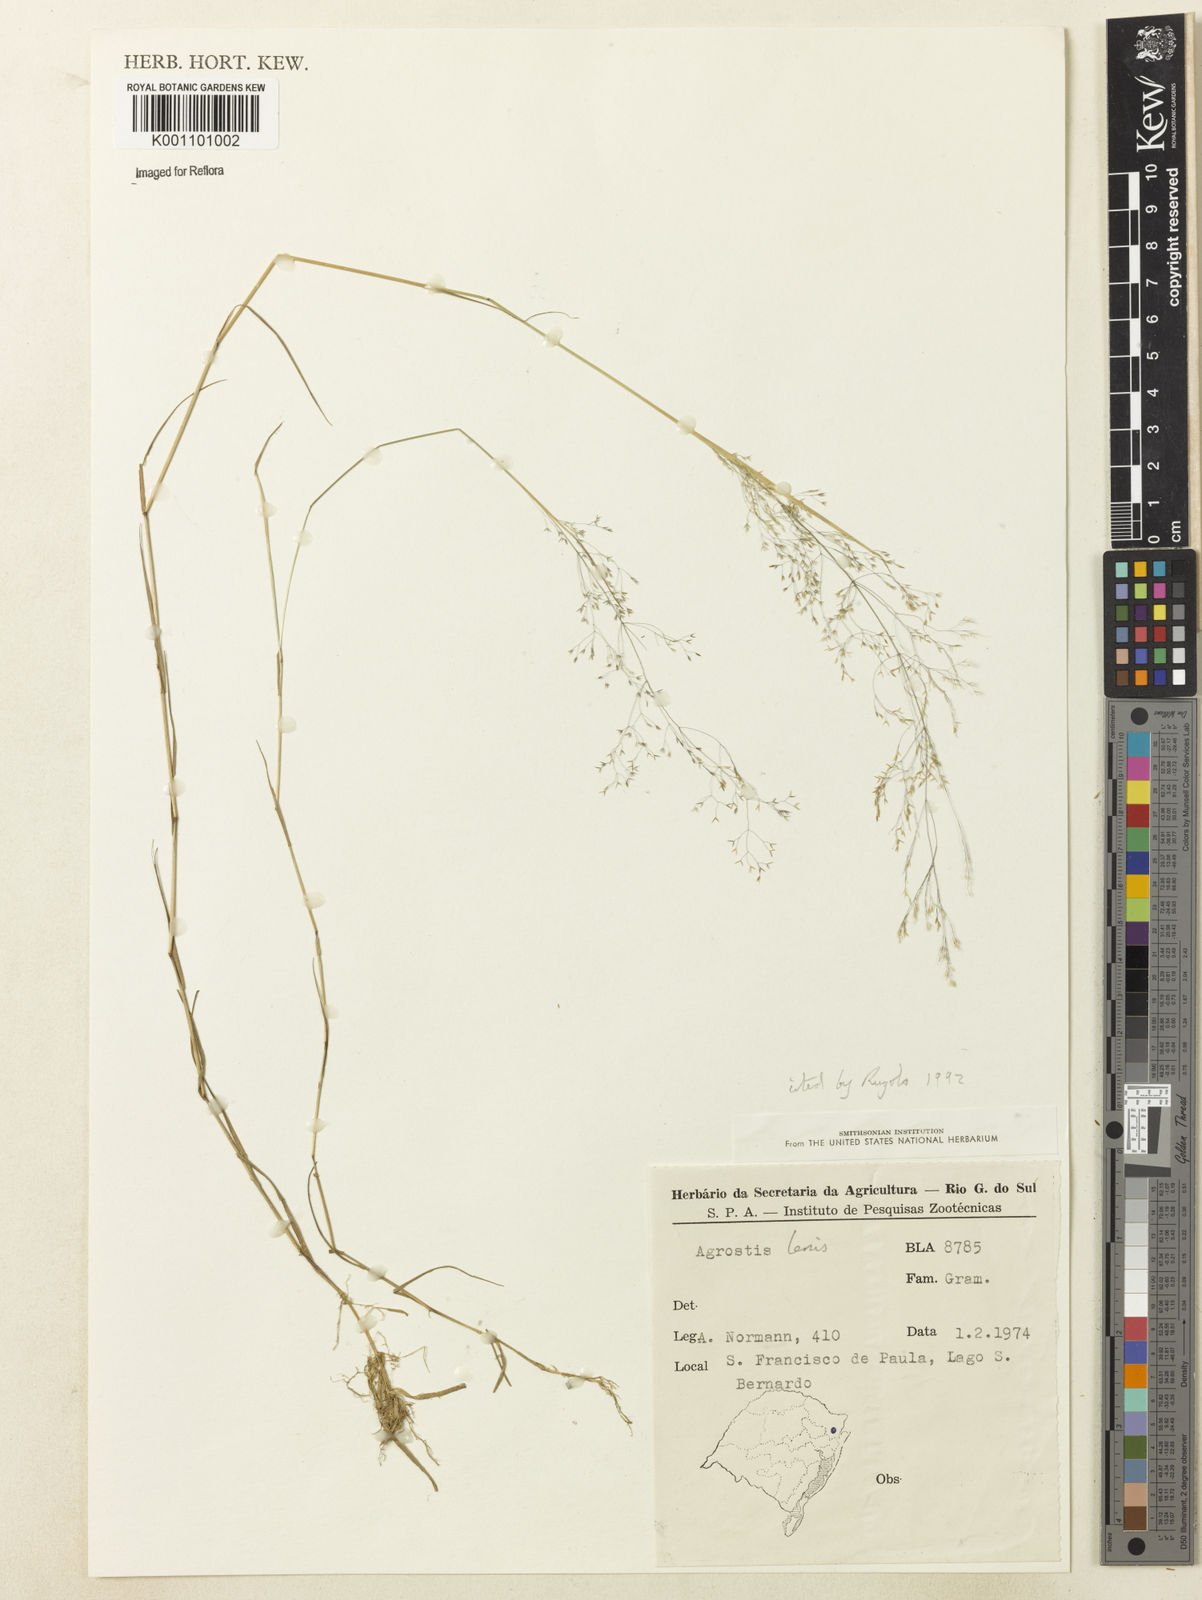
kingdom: Plantae
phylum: Tracheophyta
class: Liliopsida
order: Poales
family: Poaceae
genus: Agrostis
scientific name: Agrostis
